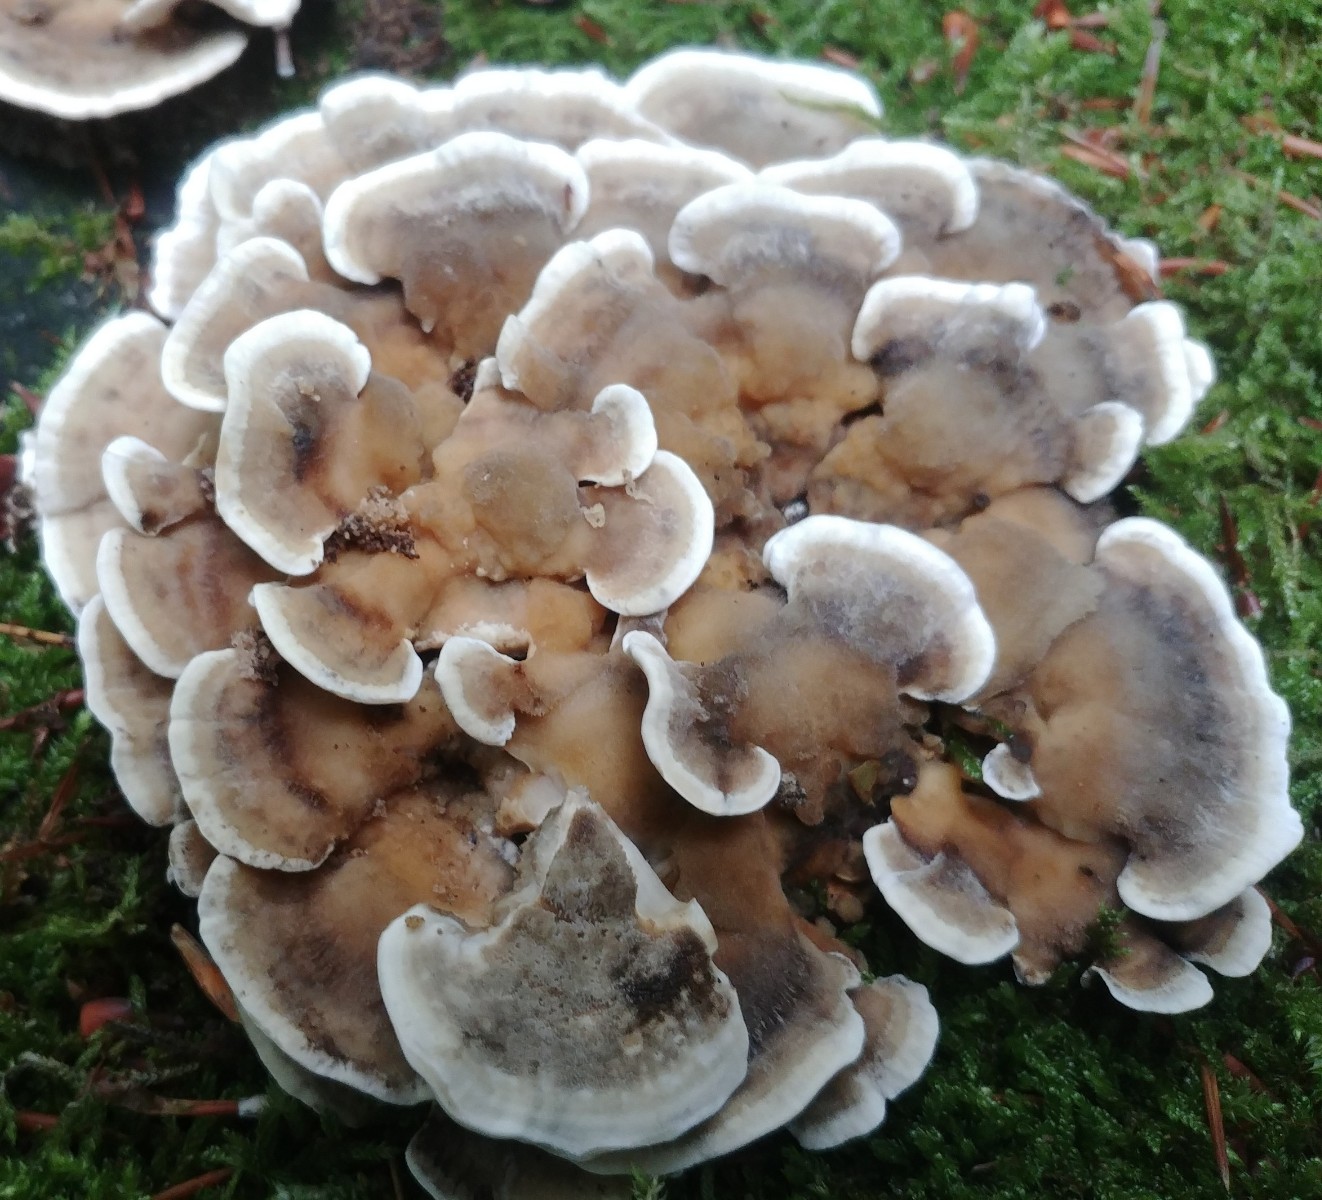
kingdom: Fungi
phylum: Basidiomycota
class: Agaricomycetes
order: Polyporales
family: Phanerochaetaceae
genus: Bjerkandera
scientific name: Bjerkandera adusta
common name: sveden sodporesvamp
